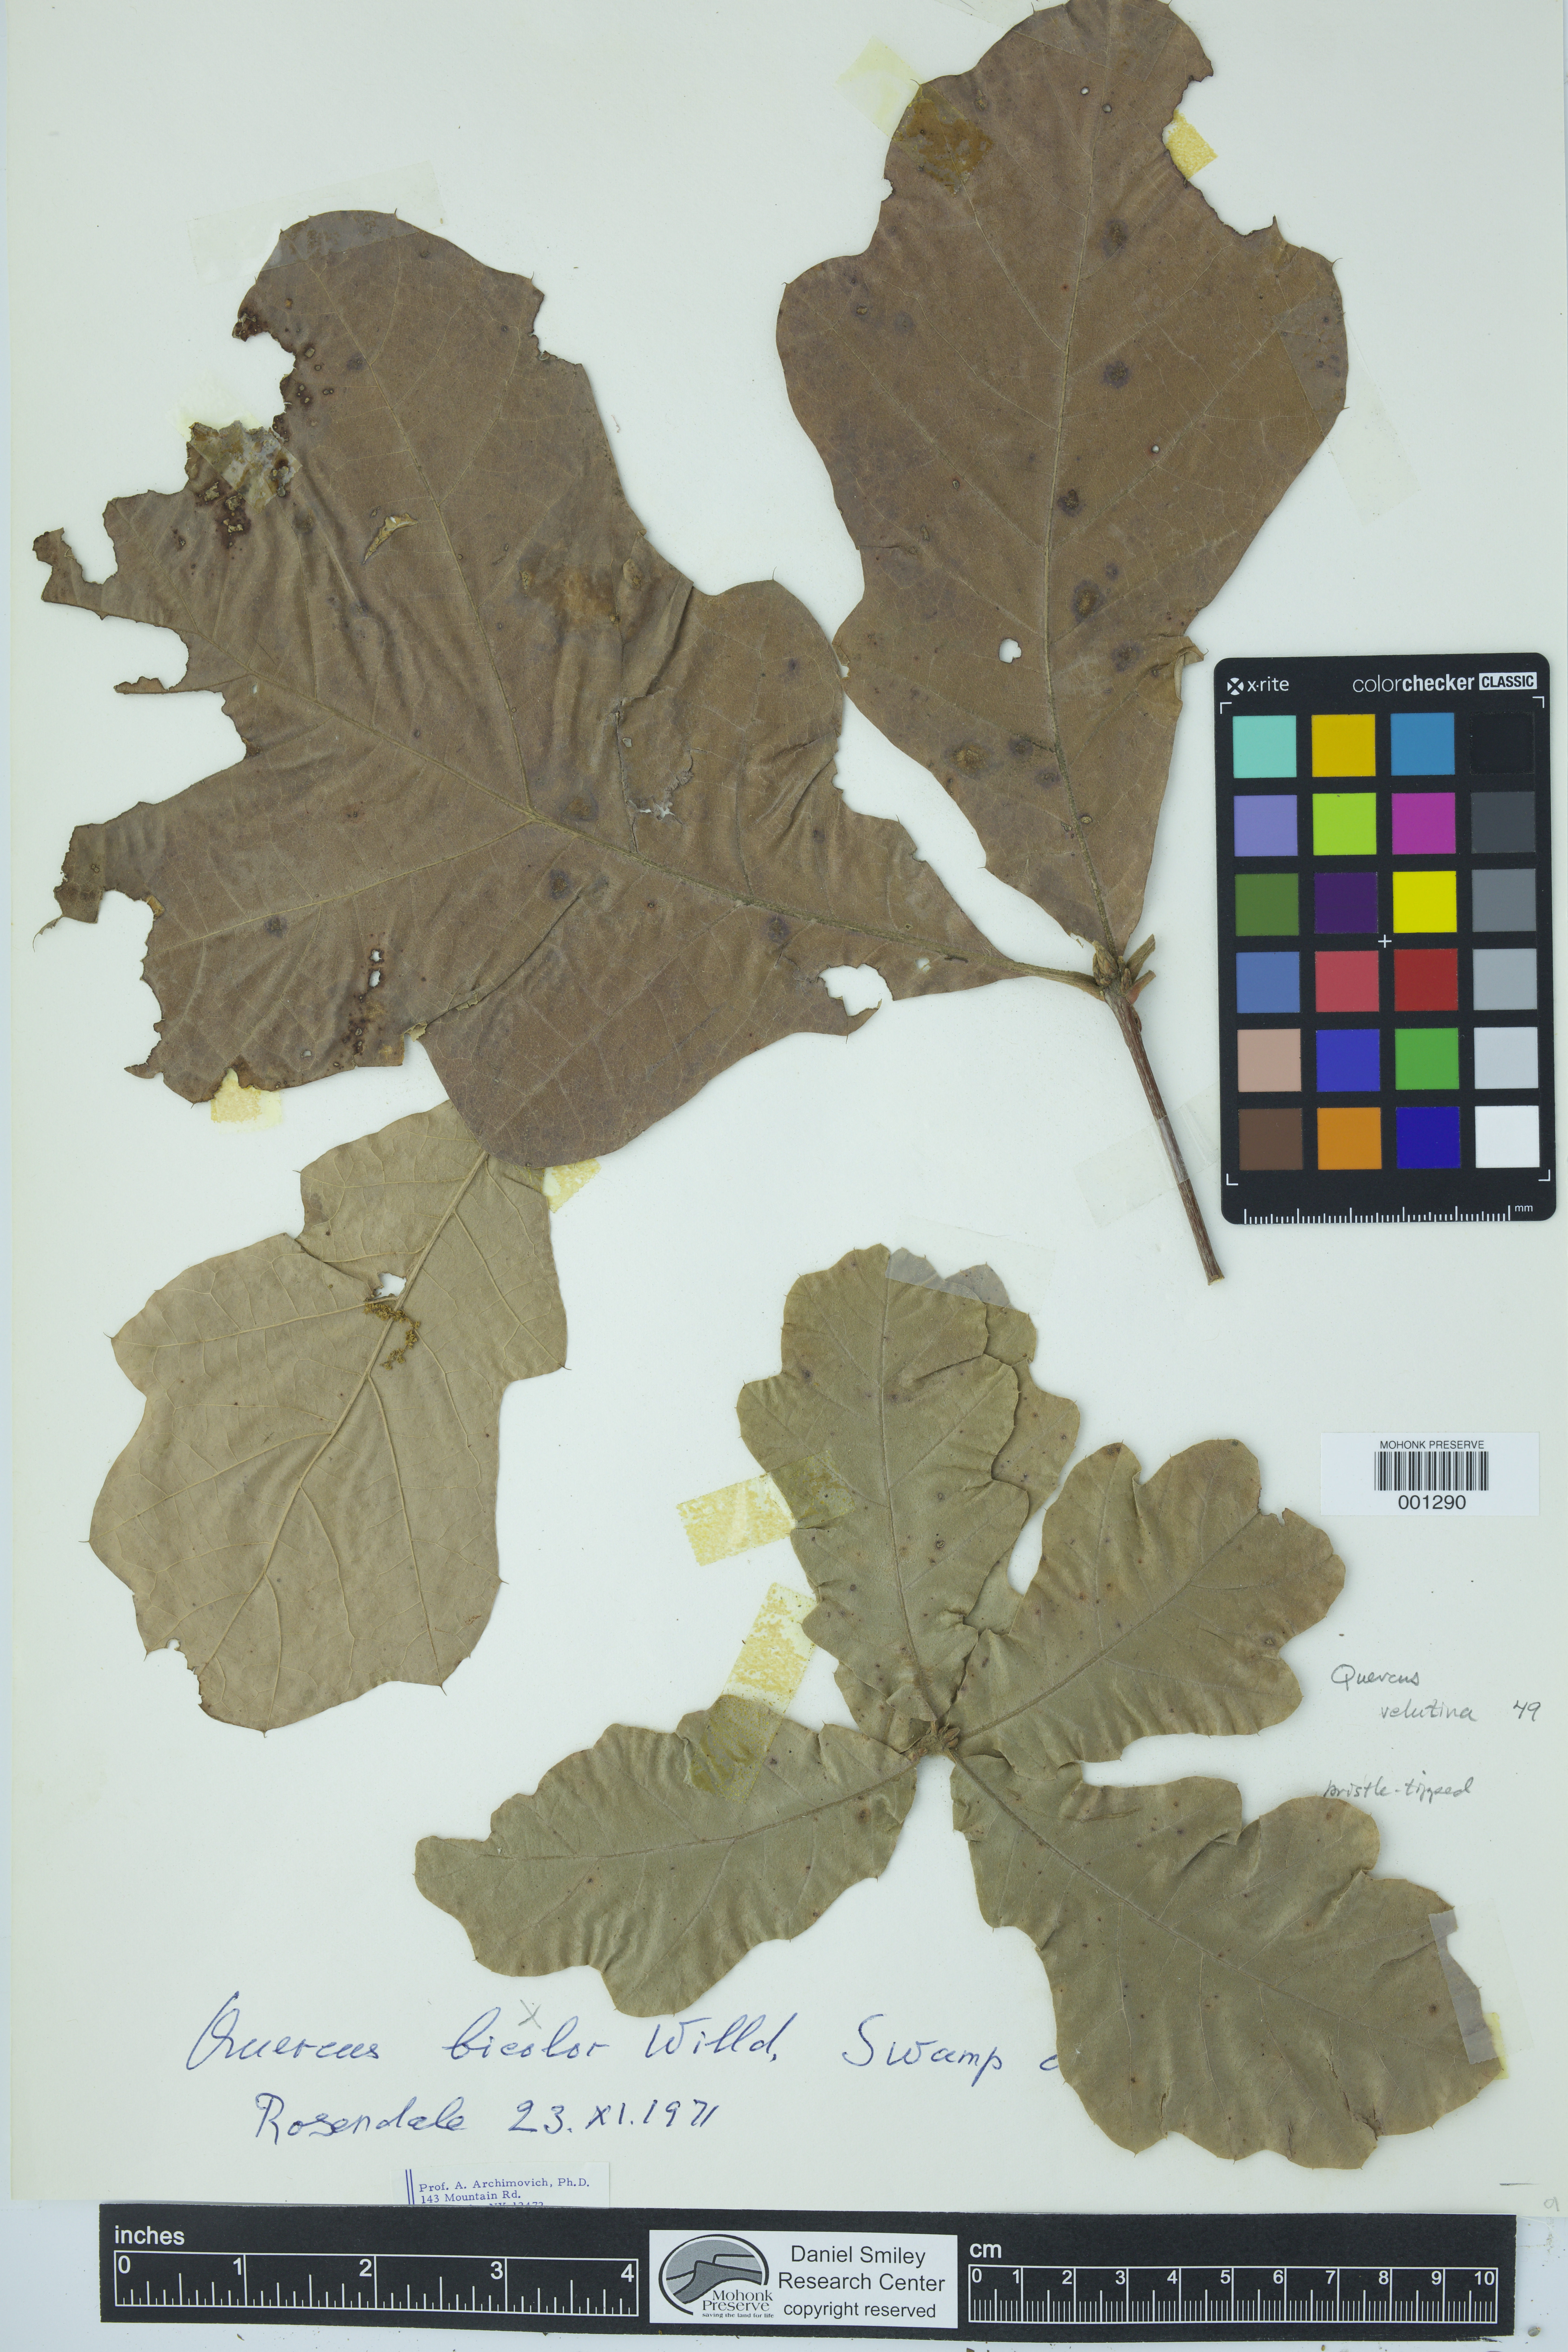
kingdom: Plantae
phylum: Tracheophyta
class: Magnoliopsida
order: Fagales
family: Fagaceae
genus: Quercus
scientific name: Quercus velutina
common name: Black oak
